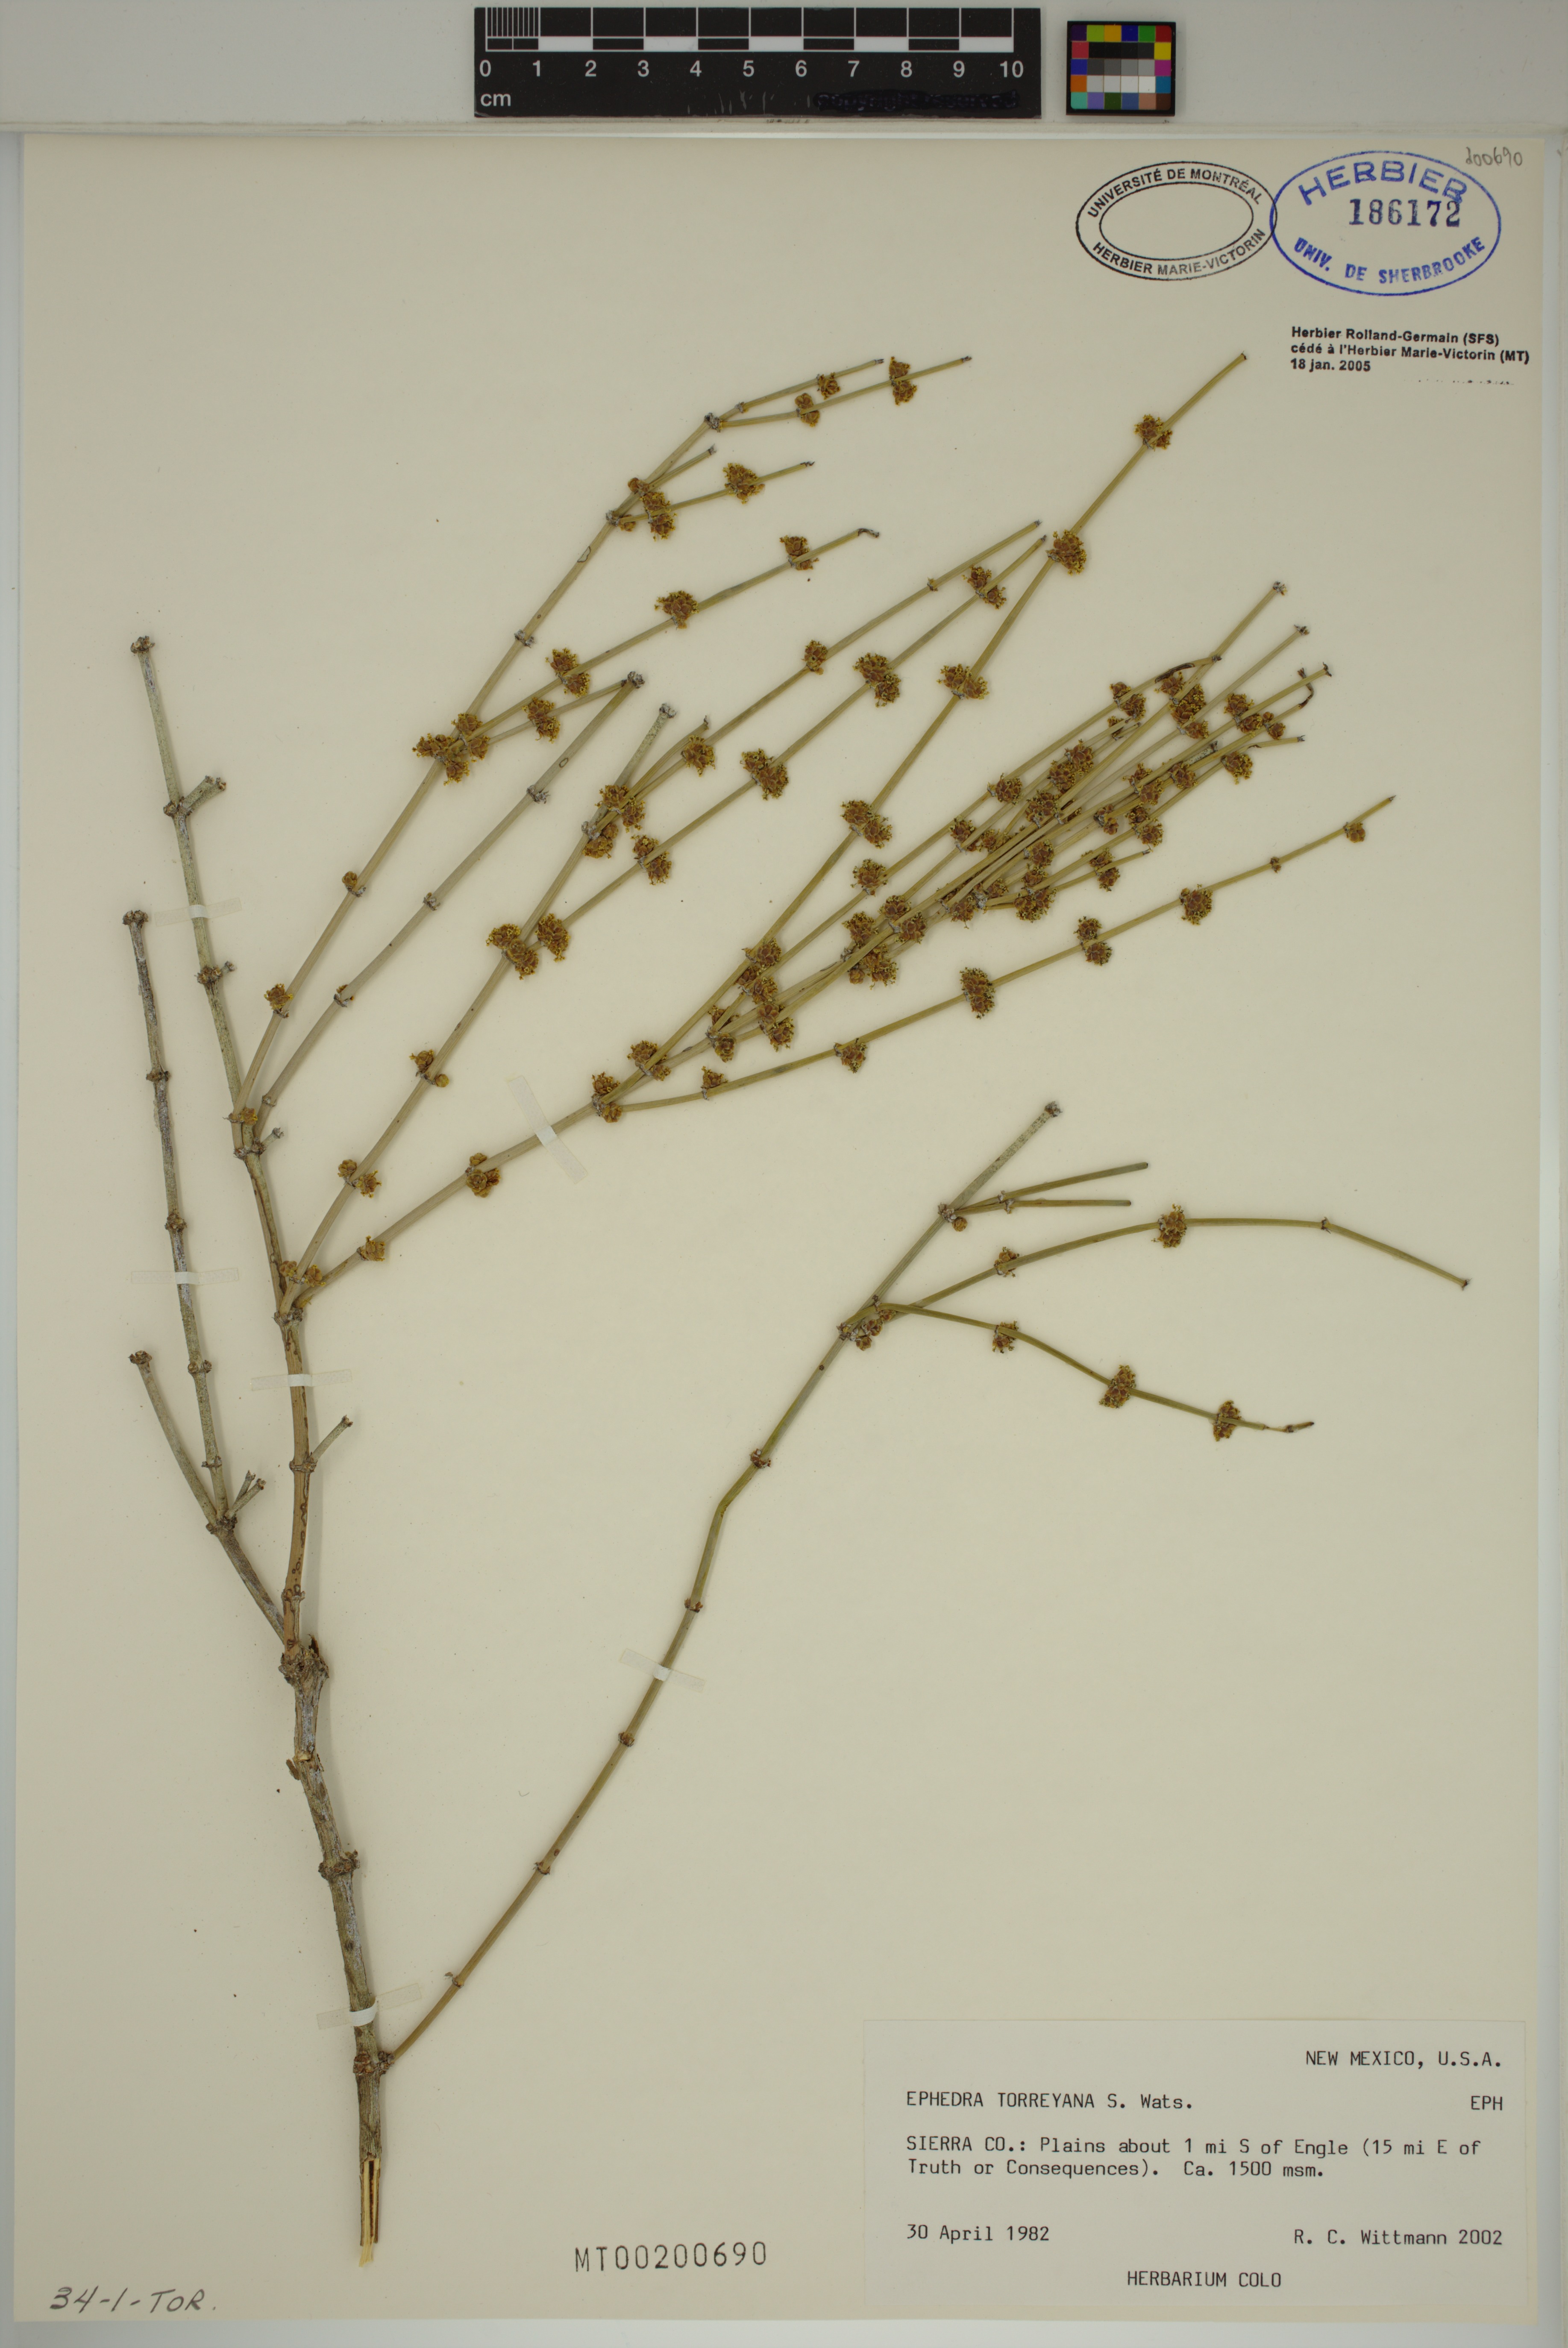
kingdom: Plantae
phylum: Tracheophyta
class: Gnetopsida
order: Ephedrales
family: Ephedraceae
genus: Ephedra
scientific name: Ephedra torreyana
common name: Torrey ephedra
